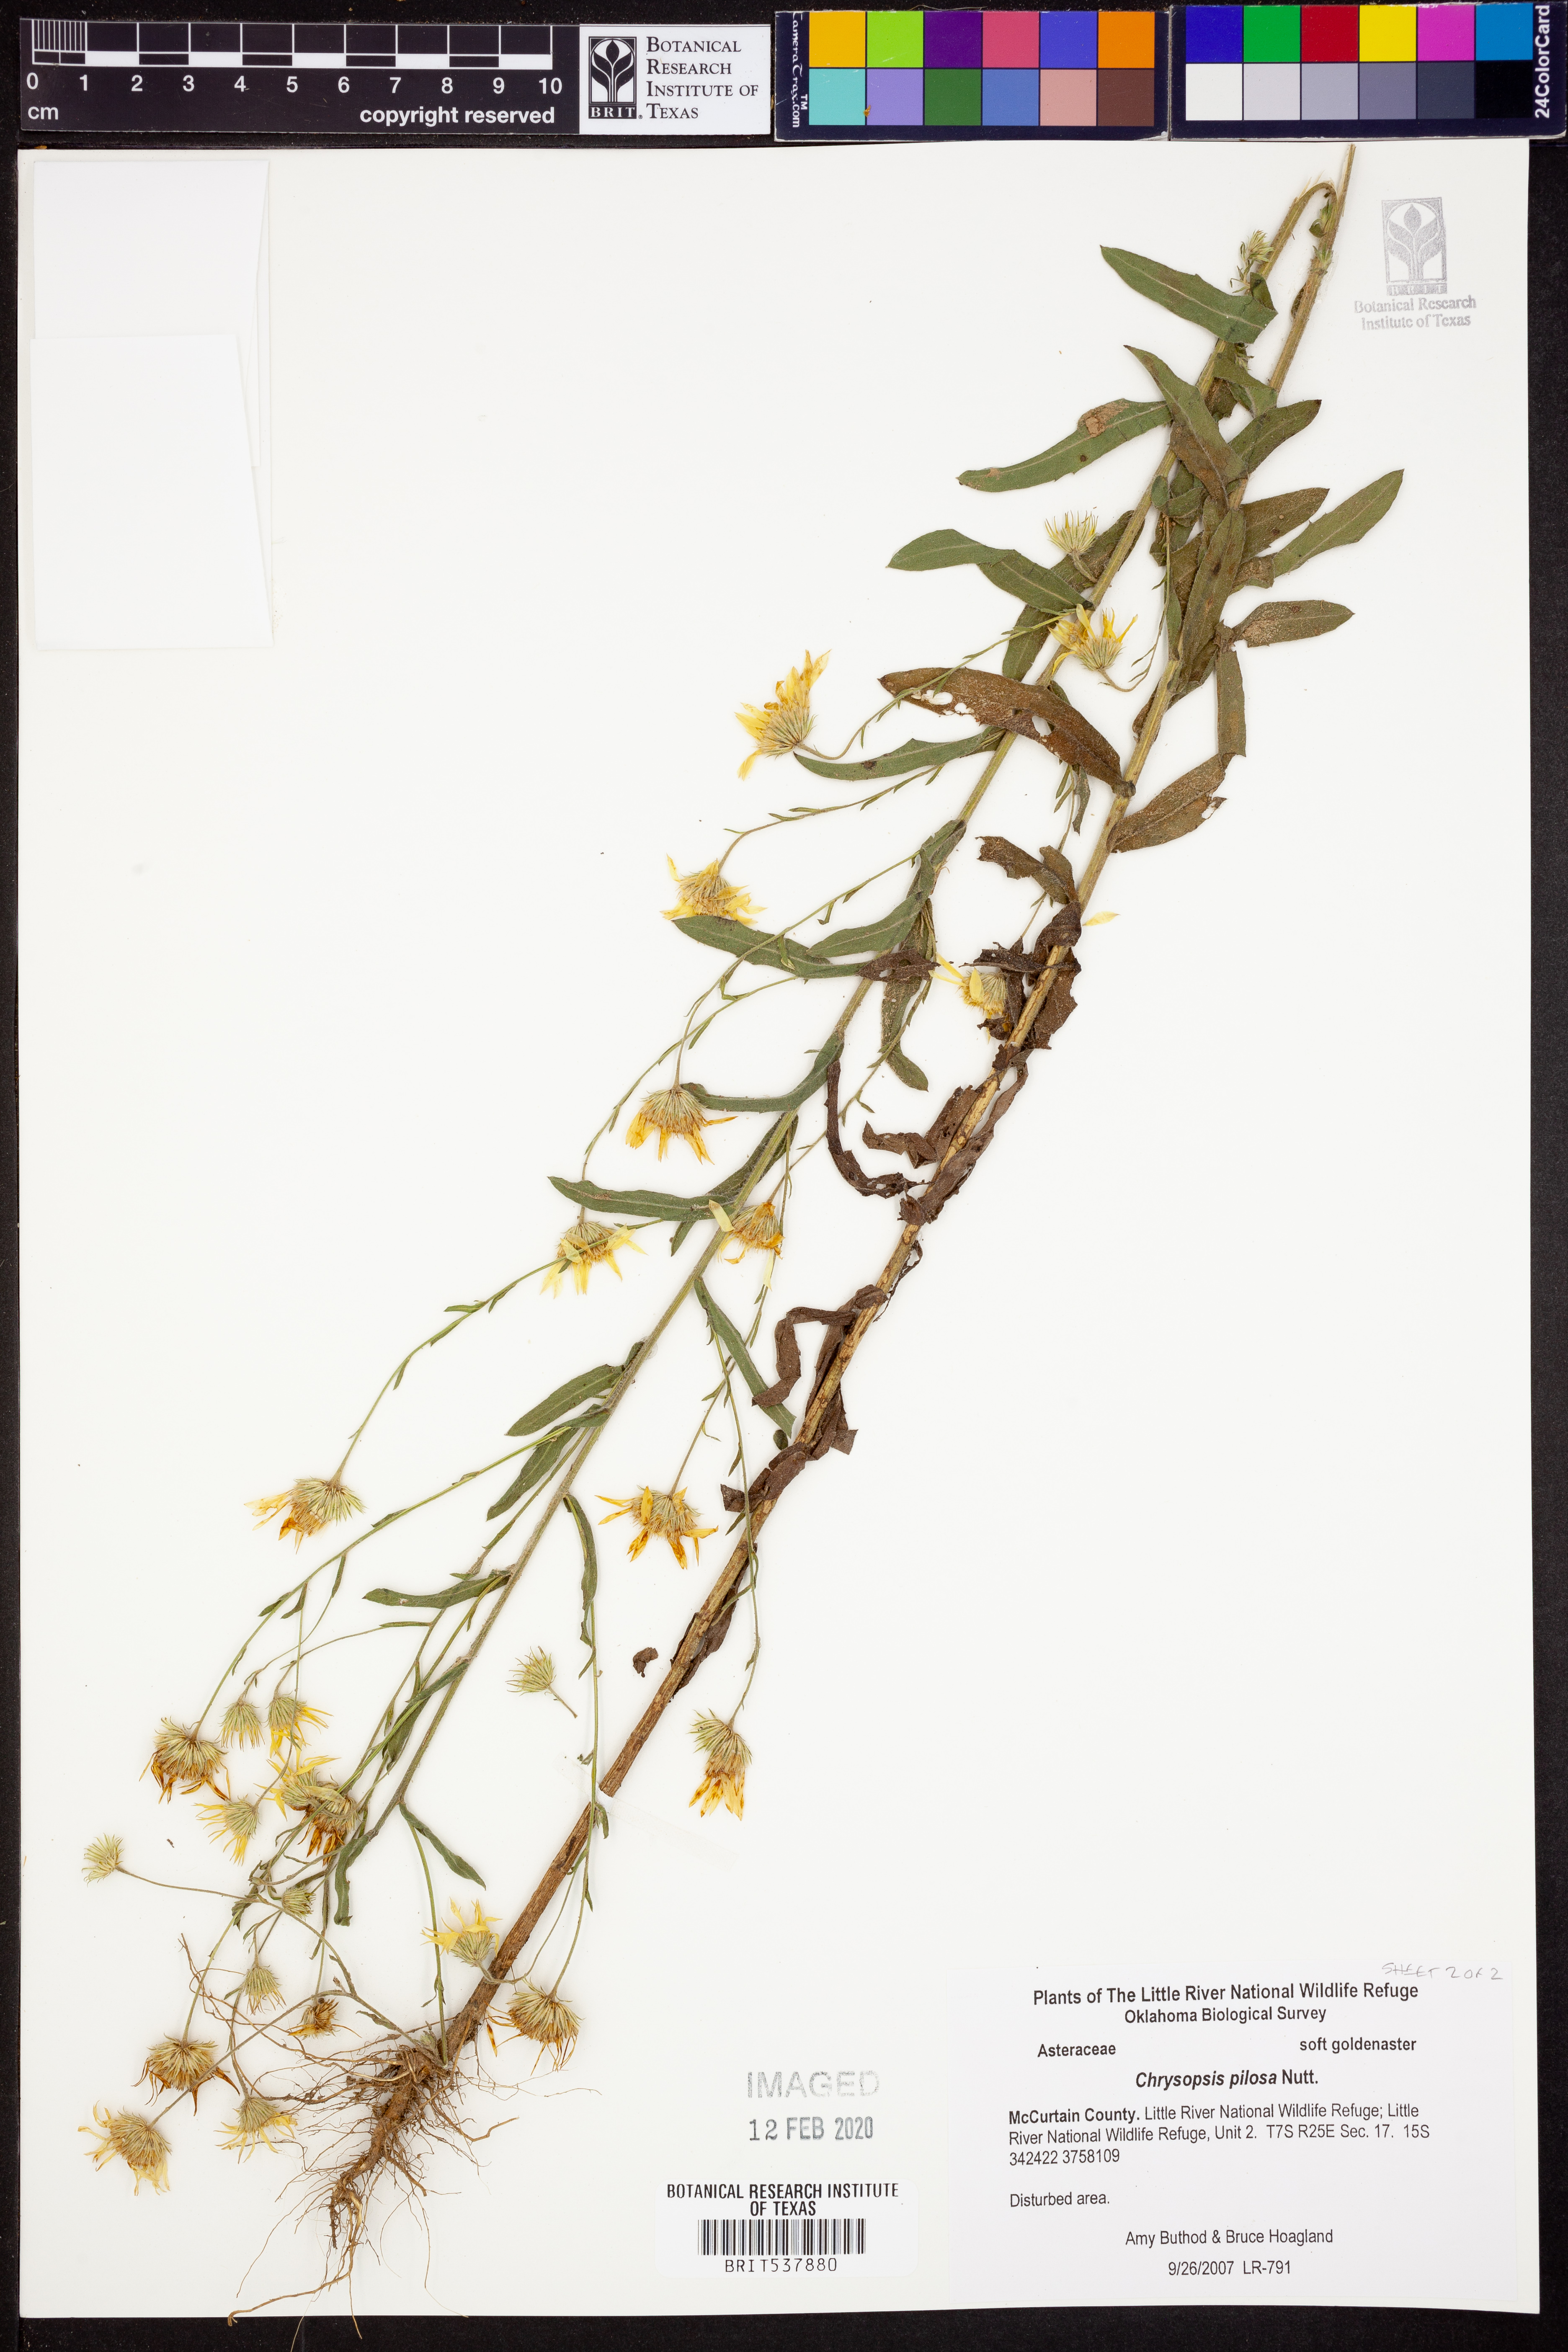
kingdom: Plantae
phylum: Tracheophyta
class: Magnoliopsida
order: Asterales
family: Asteraceae
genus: Bradburia
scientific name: Bradburia pilosa
